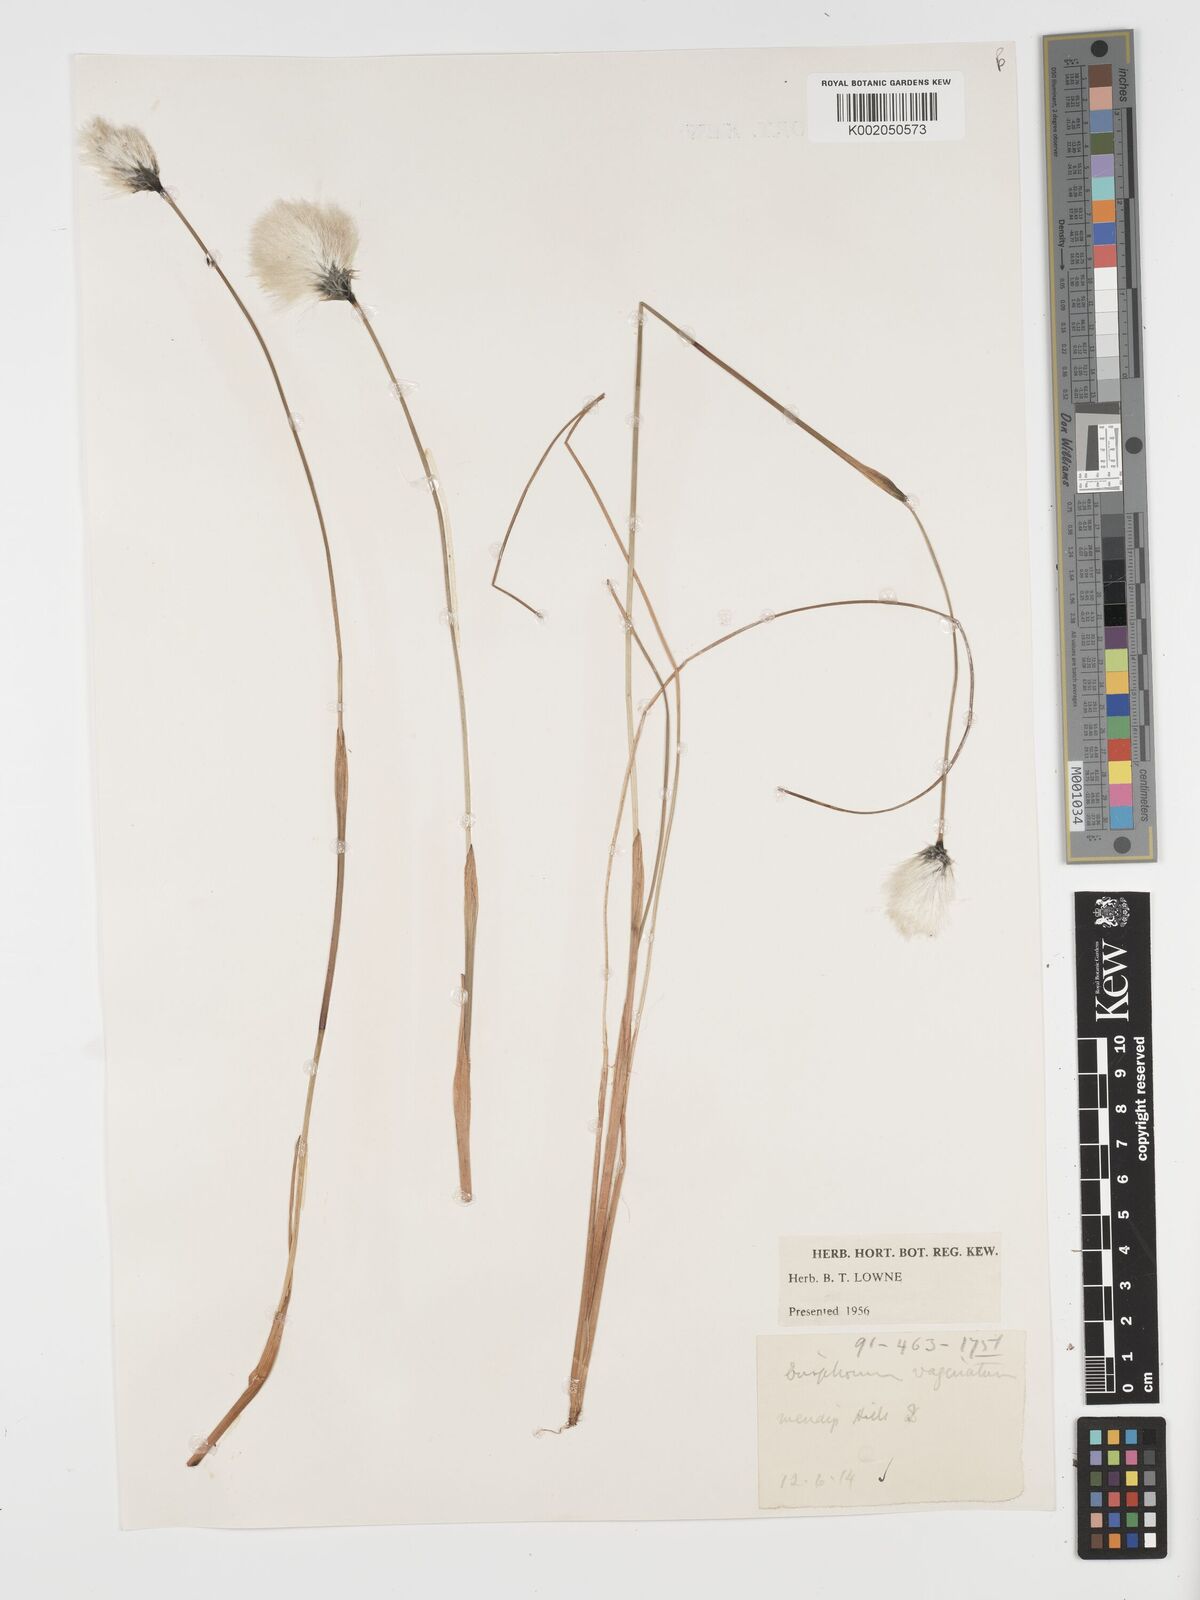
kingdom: Plantae
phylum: Tracheophyta
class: Liliopsida
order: Poales
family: Cyperaceae
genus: Eriophorum
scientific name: Eriophorum vaginatum
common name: Hare's-tail cottongrass
